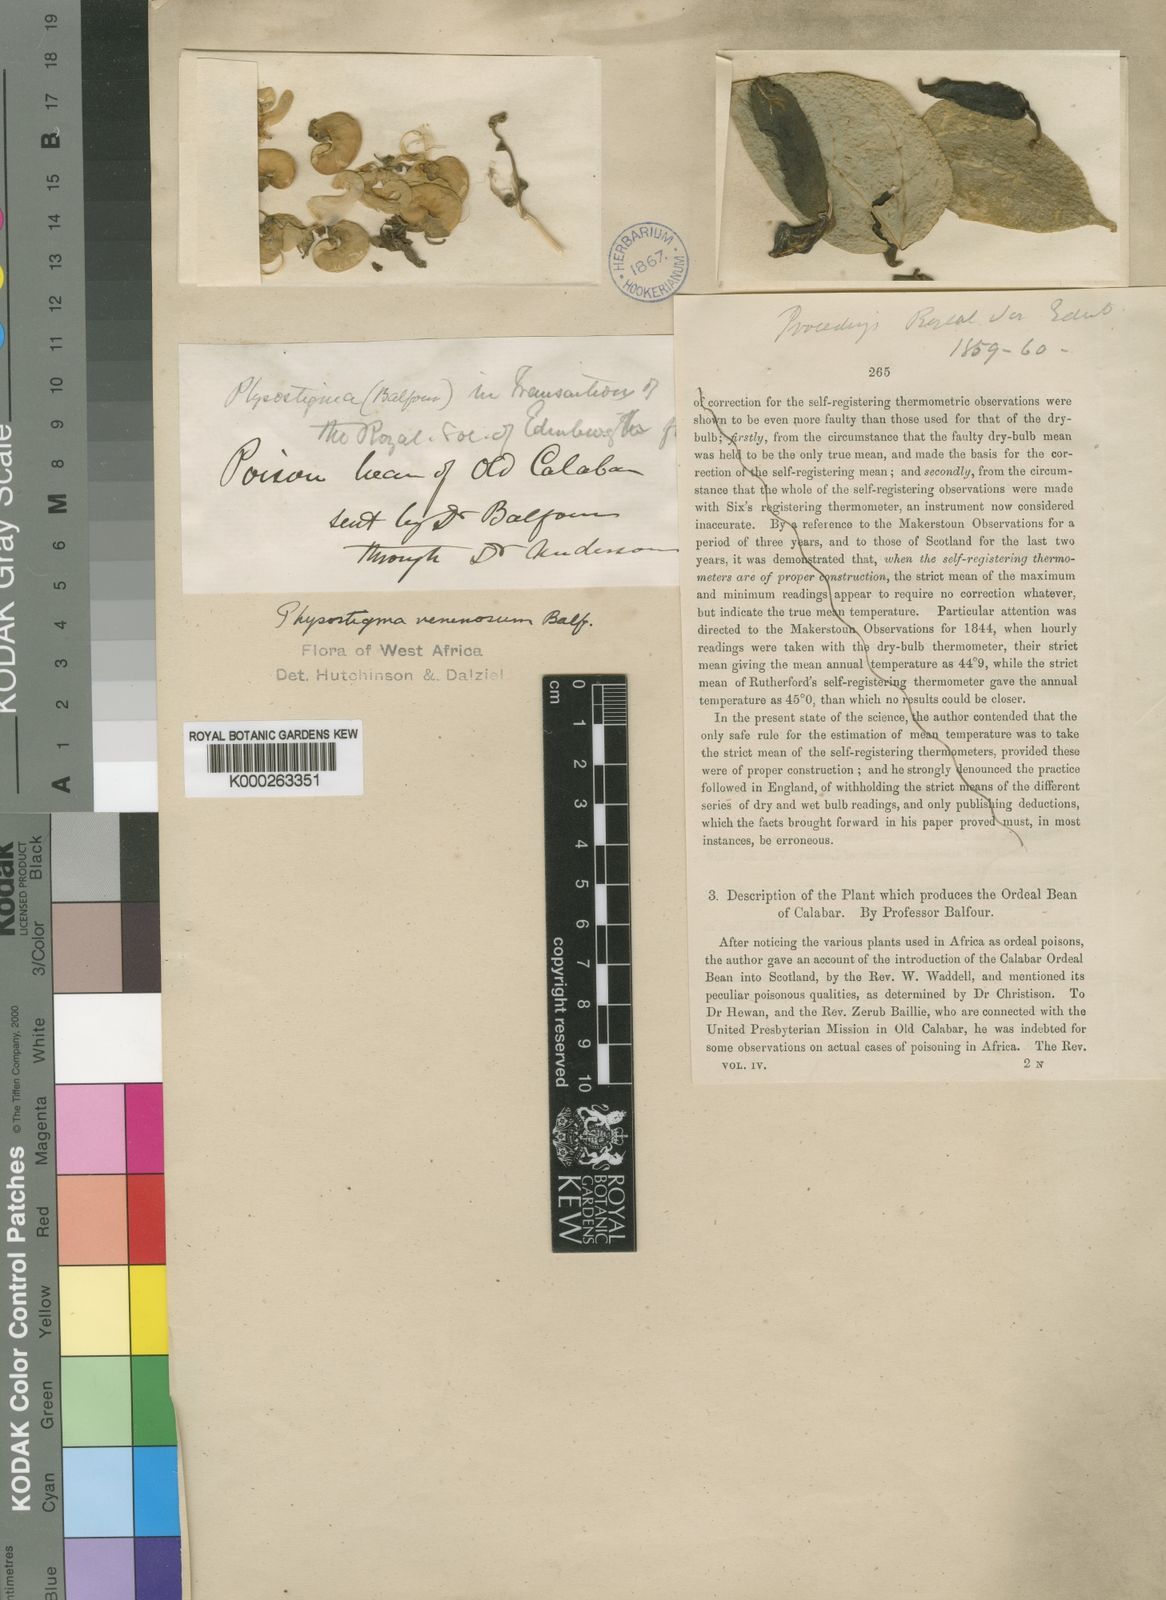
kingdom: Plantae
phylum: Tracheophyta
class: Magnoliopsida
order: Fabales
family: Fabaceae
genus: Physostigma
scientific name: Physostigma venenosum
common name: Calabar-bean
